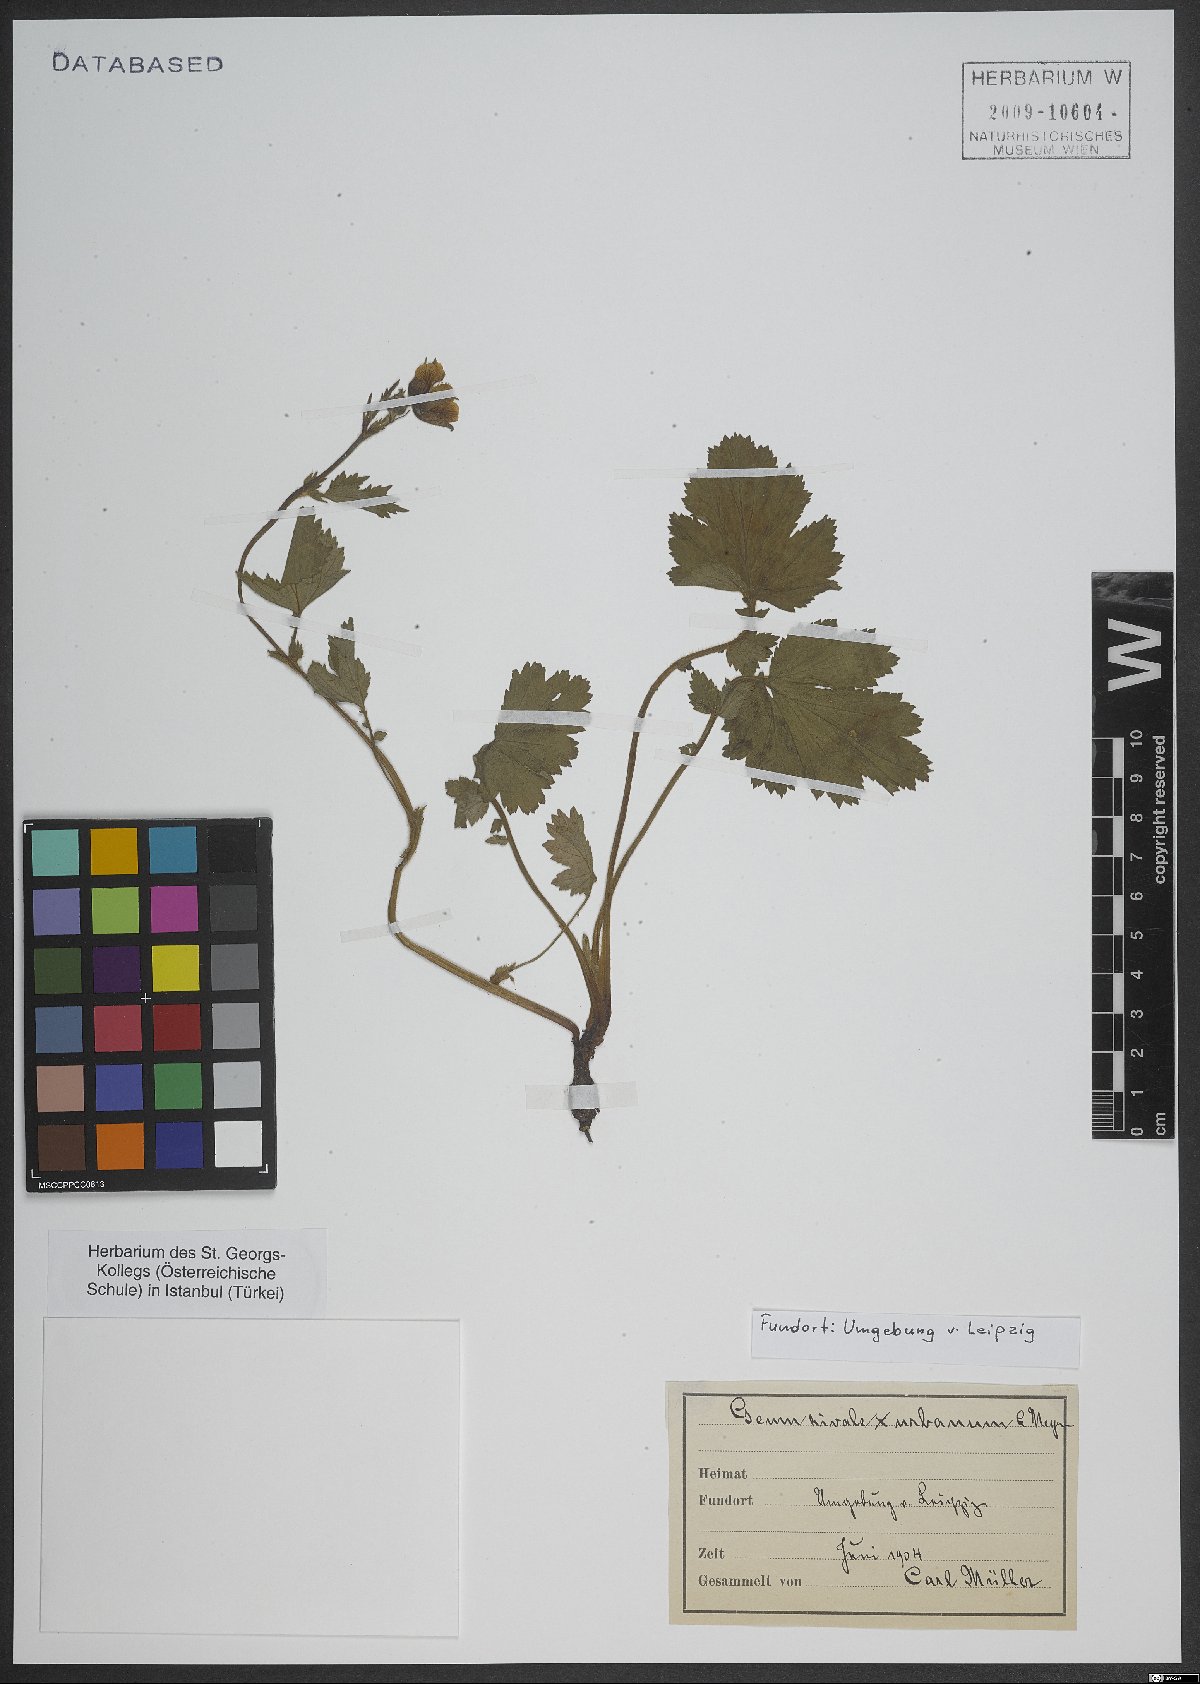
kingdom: Plantae
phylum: Tracheophyta
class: Magnoliopsida
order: Rosales
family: Rosaceae
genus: Geum
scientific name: Geum rivale
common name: Water avens
